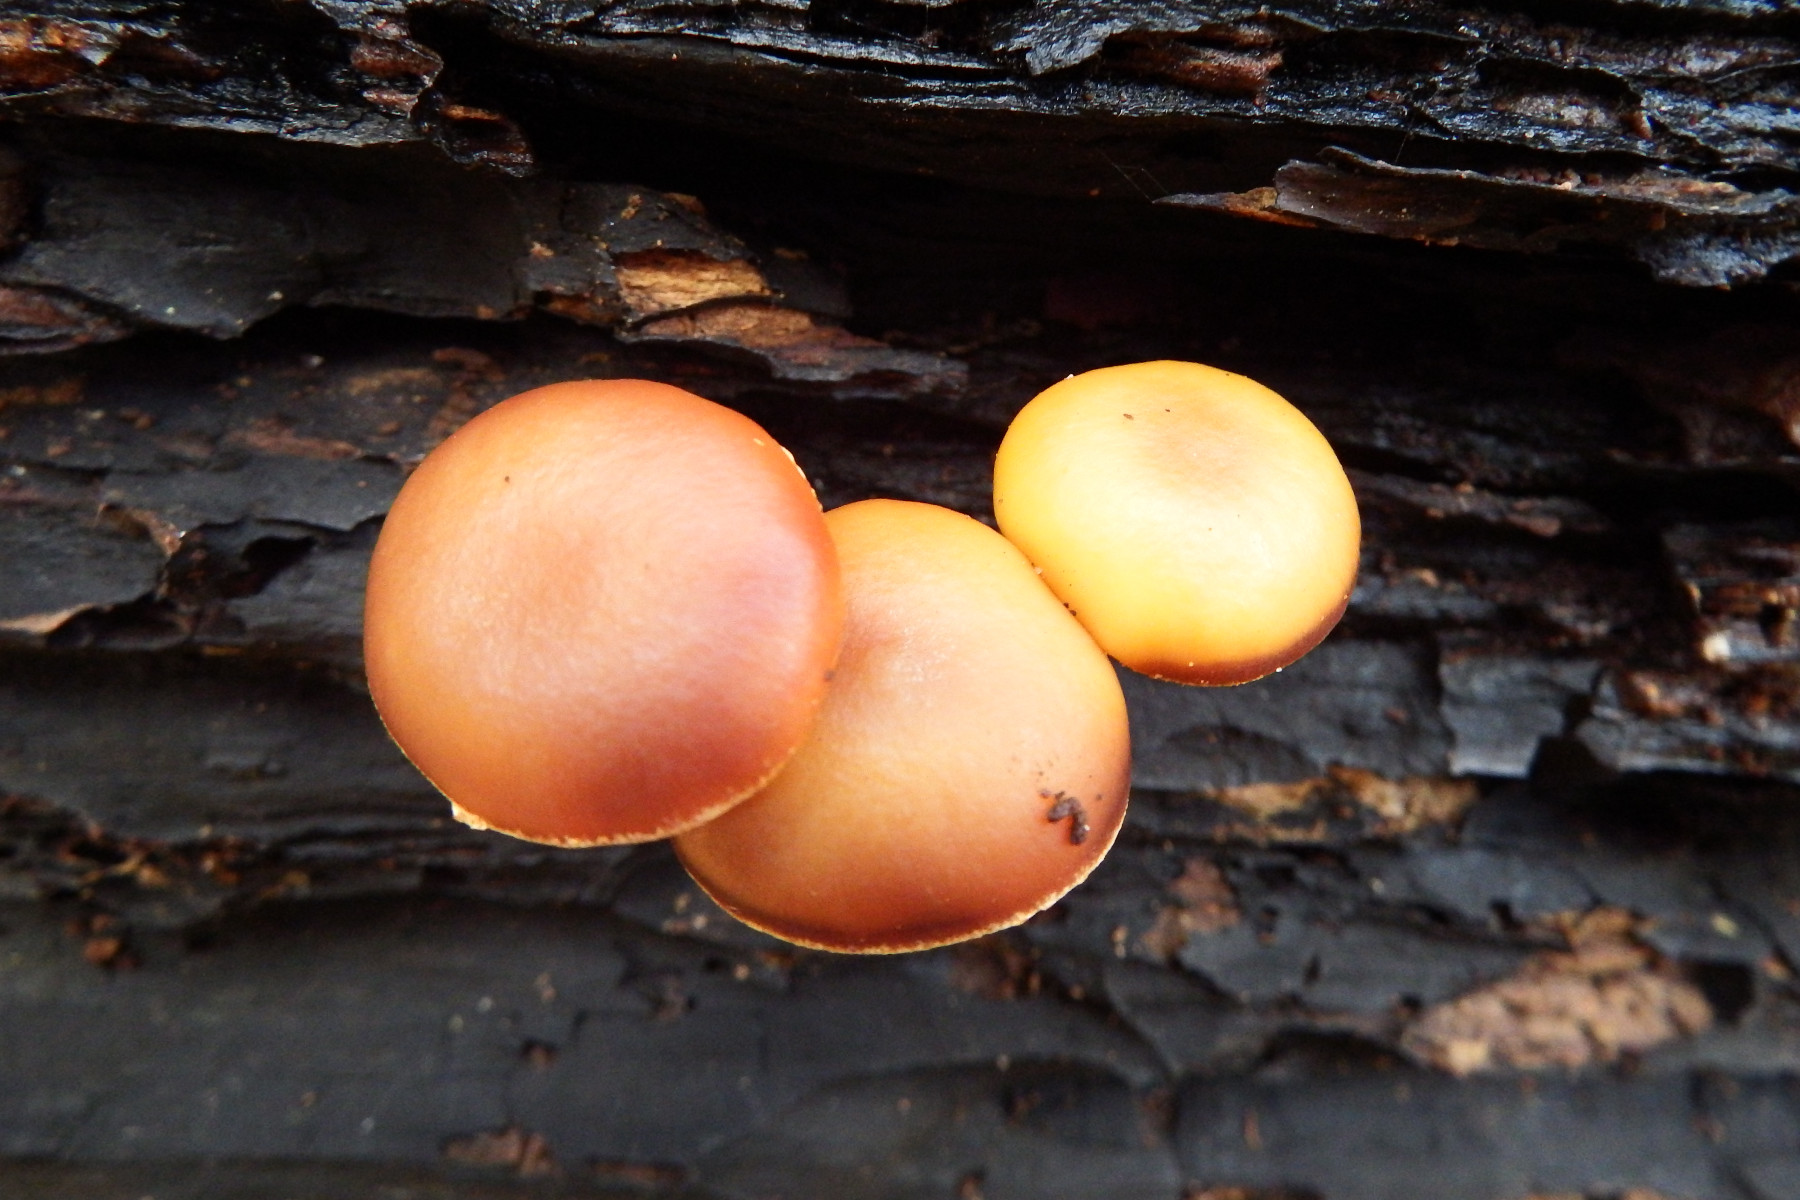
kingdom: Fungi
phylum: Basidiomycota
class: Agaricomycetes
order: Agaricales
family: Hymenogastraceae
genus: Galerina
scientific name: Galerina marginata
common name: randbæltet hjelmhat
